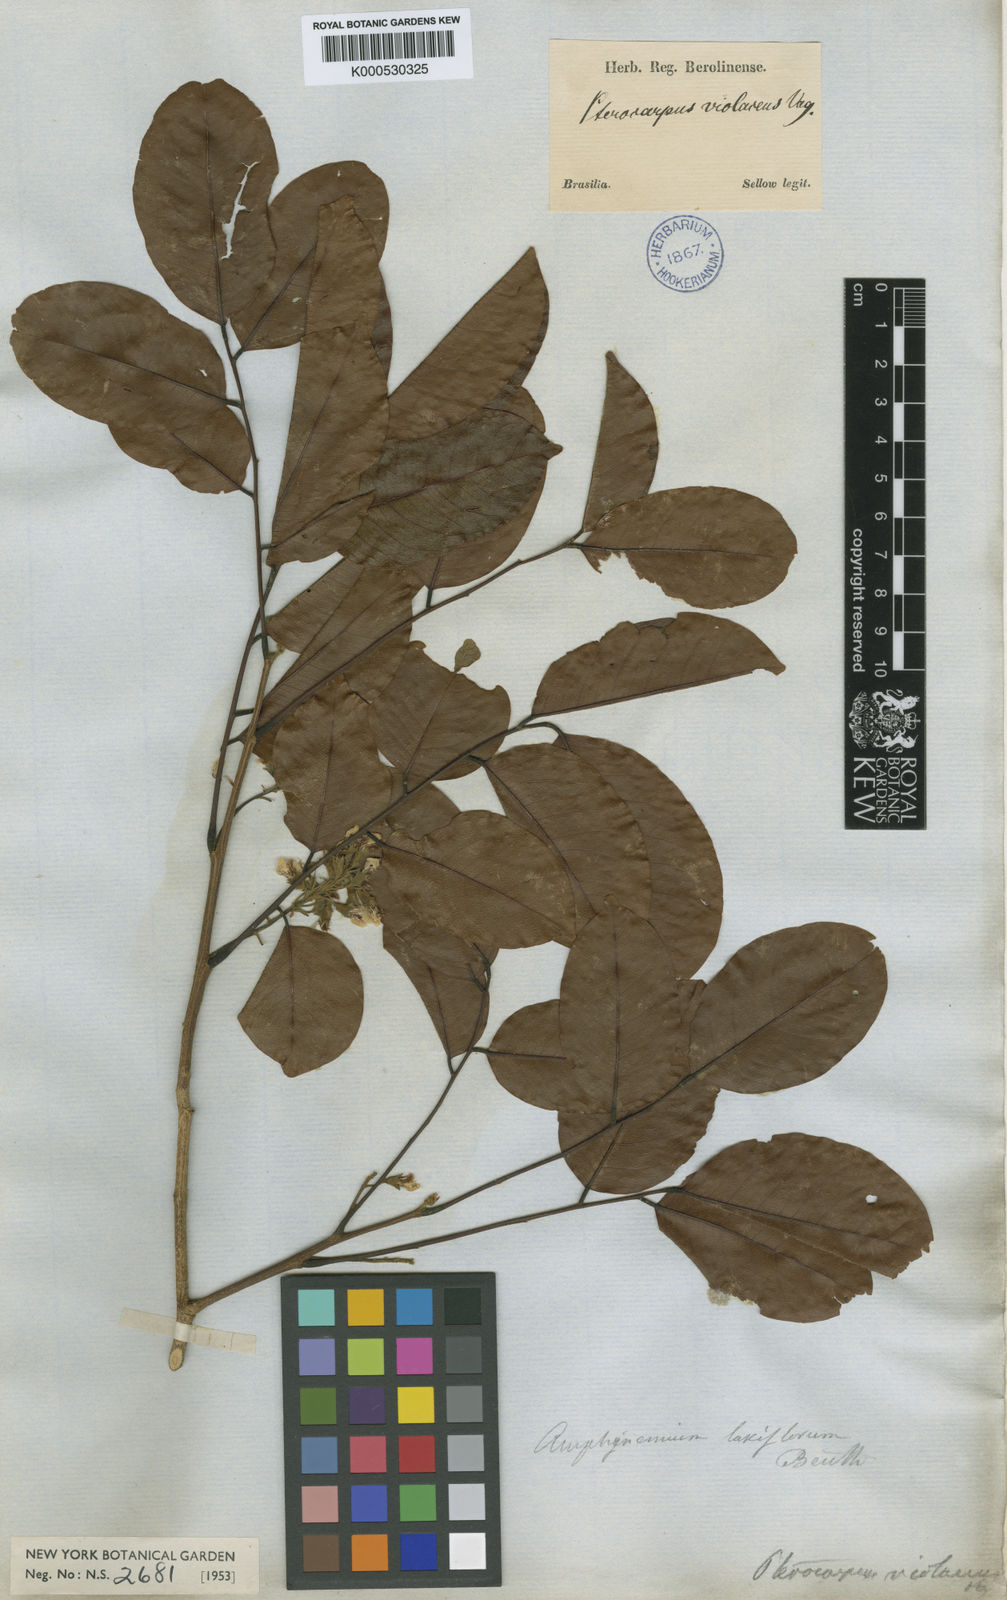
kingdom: Plantae
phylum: Tracheophyta
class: Magnoliopsida
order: Fabales
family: Fabaceae
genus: Pterocarpus
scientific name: Pterocarpus rohrii
